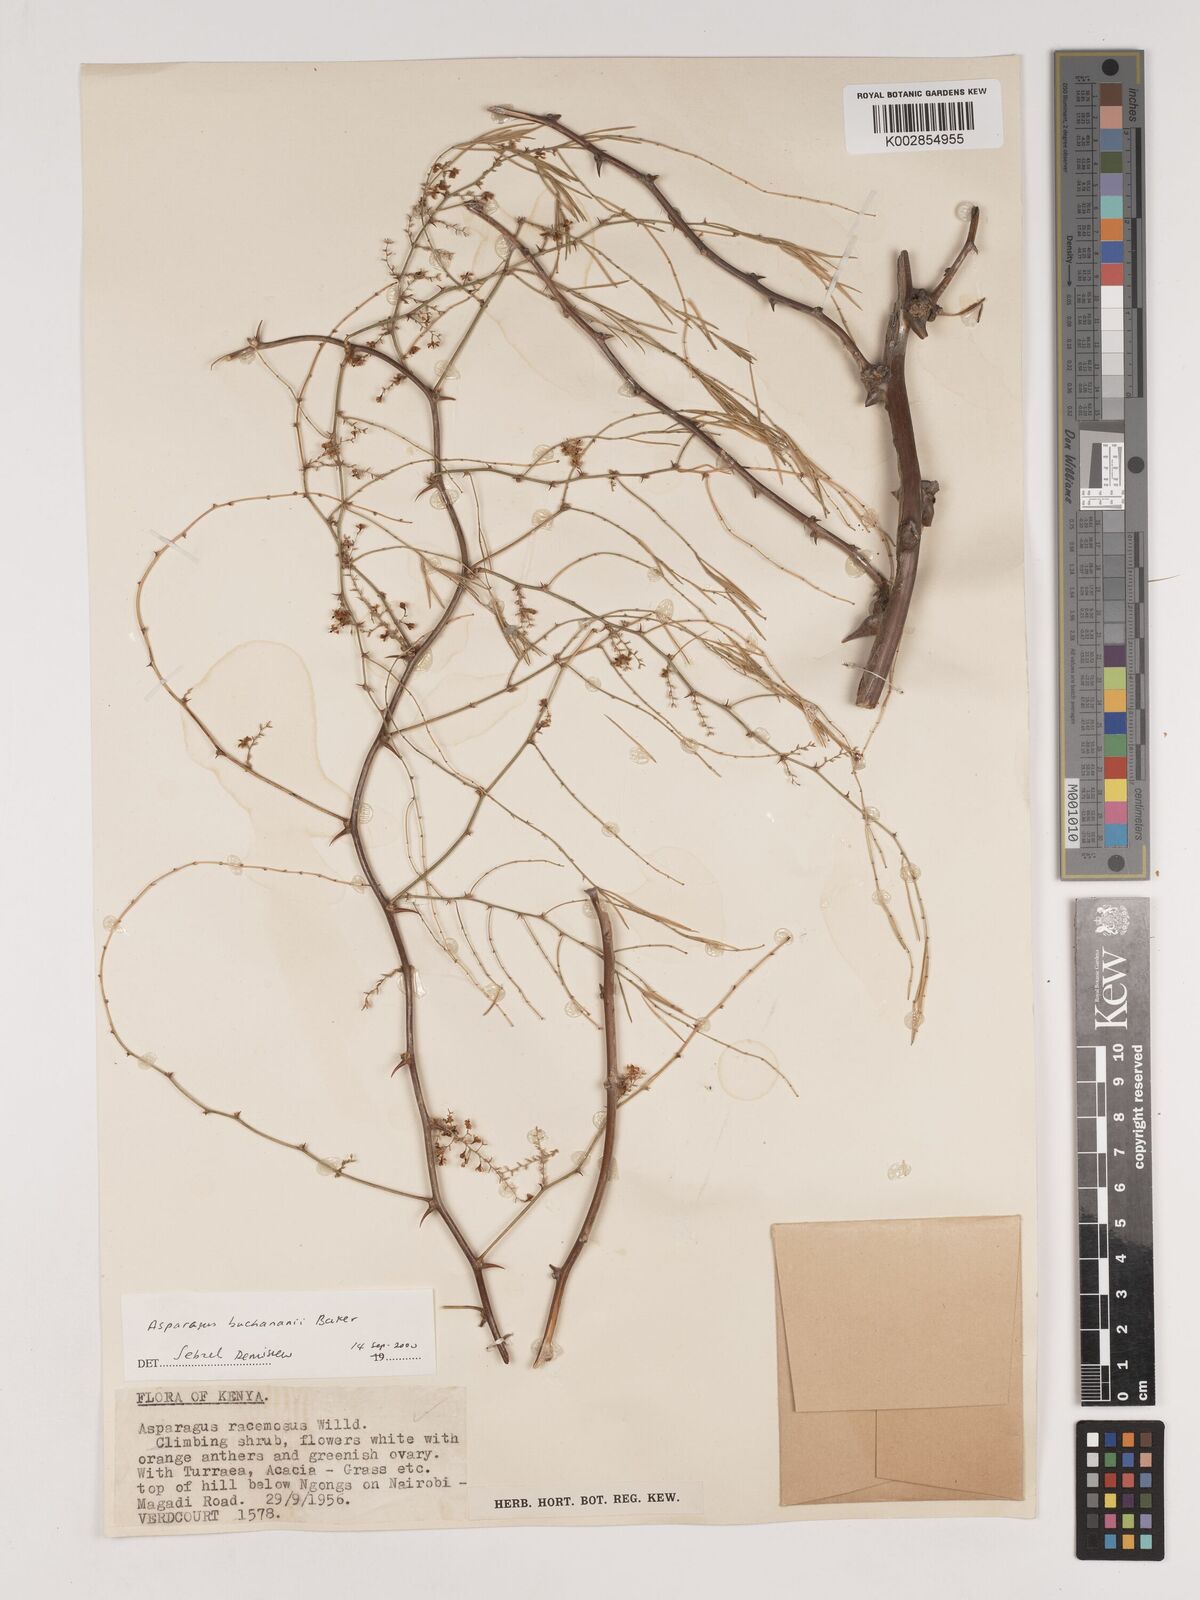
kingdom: Plantae
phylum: Tracheophyta
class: Liliopsida
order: Asparagales
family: Asparagaceae
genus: Asparagus
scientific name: Asparagus buchananii
